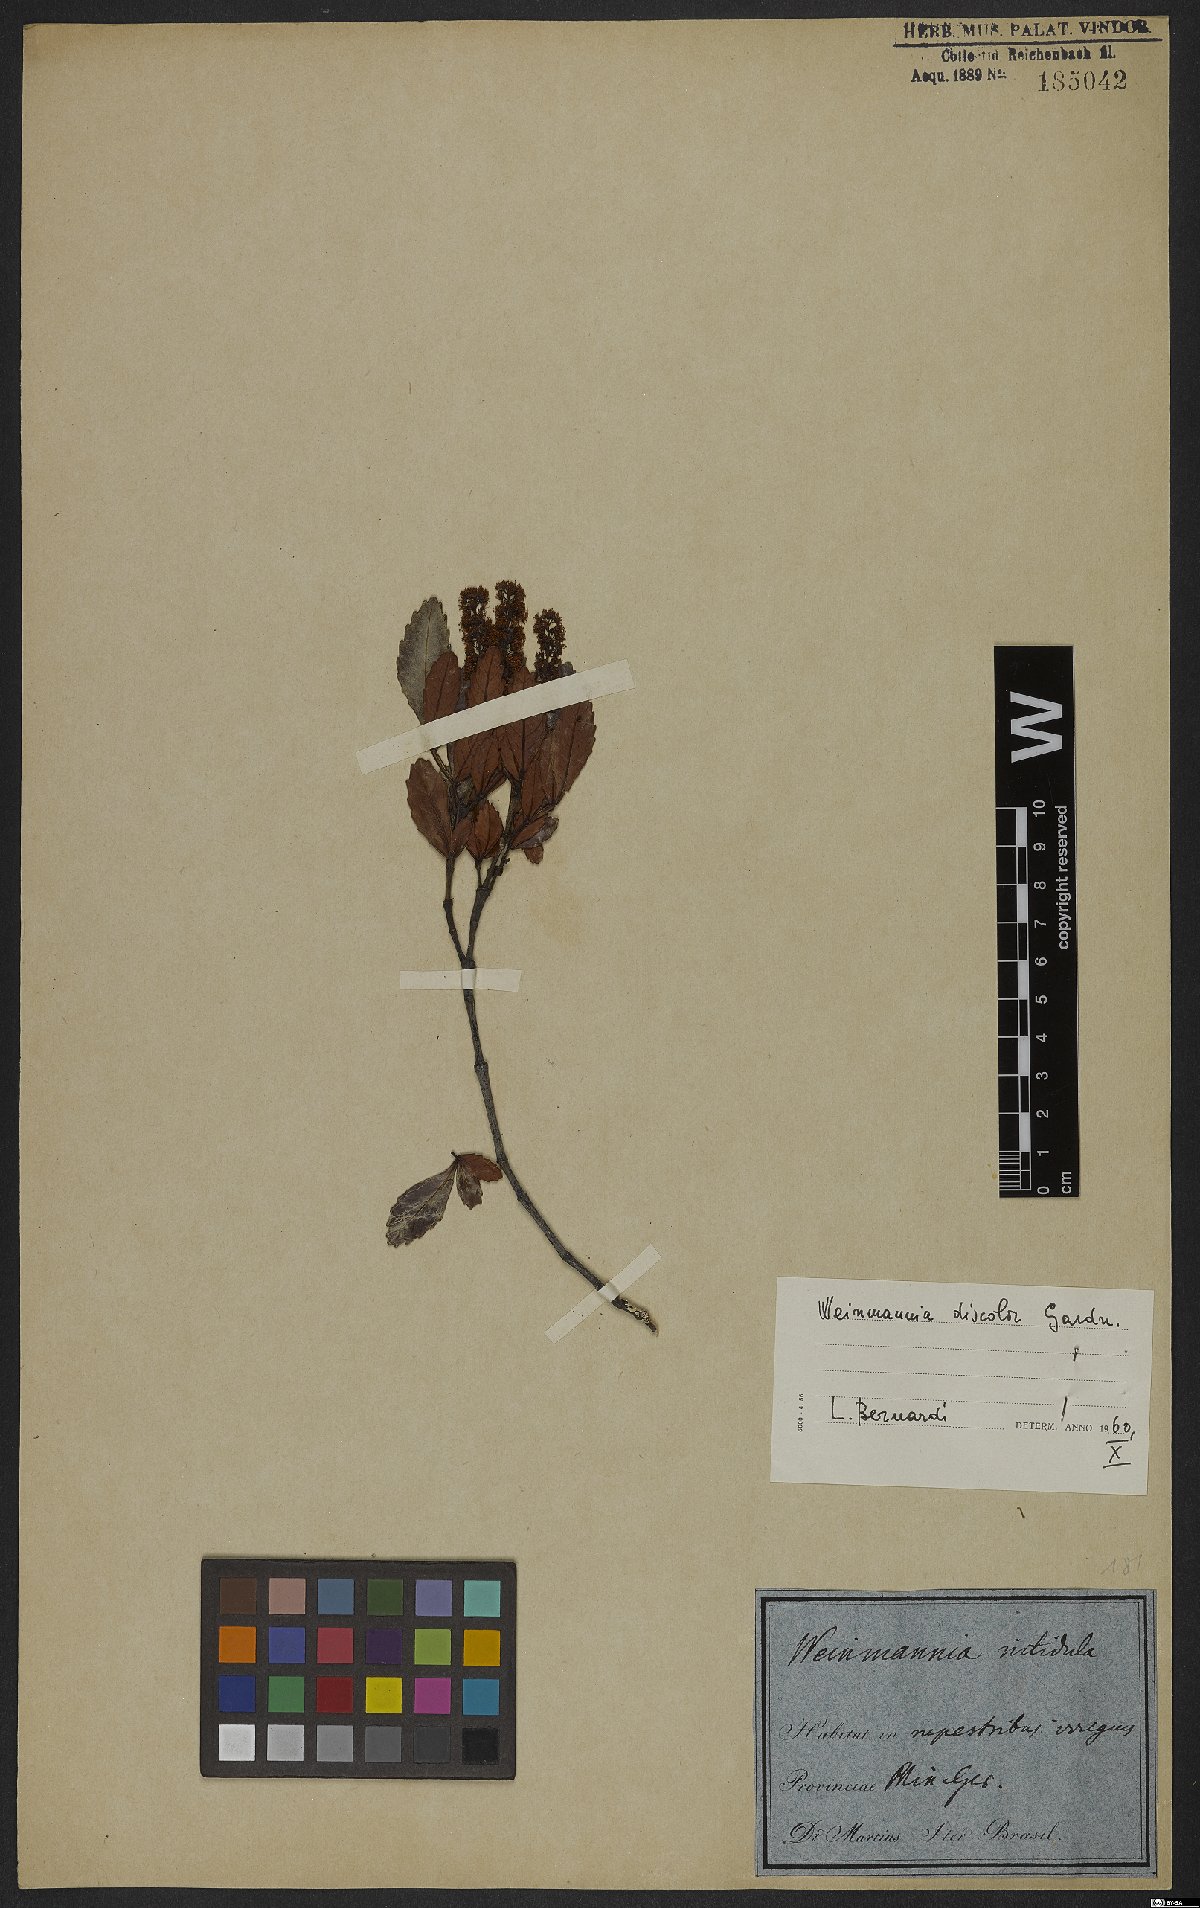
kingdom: Plantae
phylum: Tracheophyta
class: Magnoliopsida
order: Oxalidales
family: Cunoniaceae
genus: Weinmannia
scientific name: Weinmannia discolor
